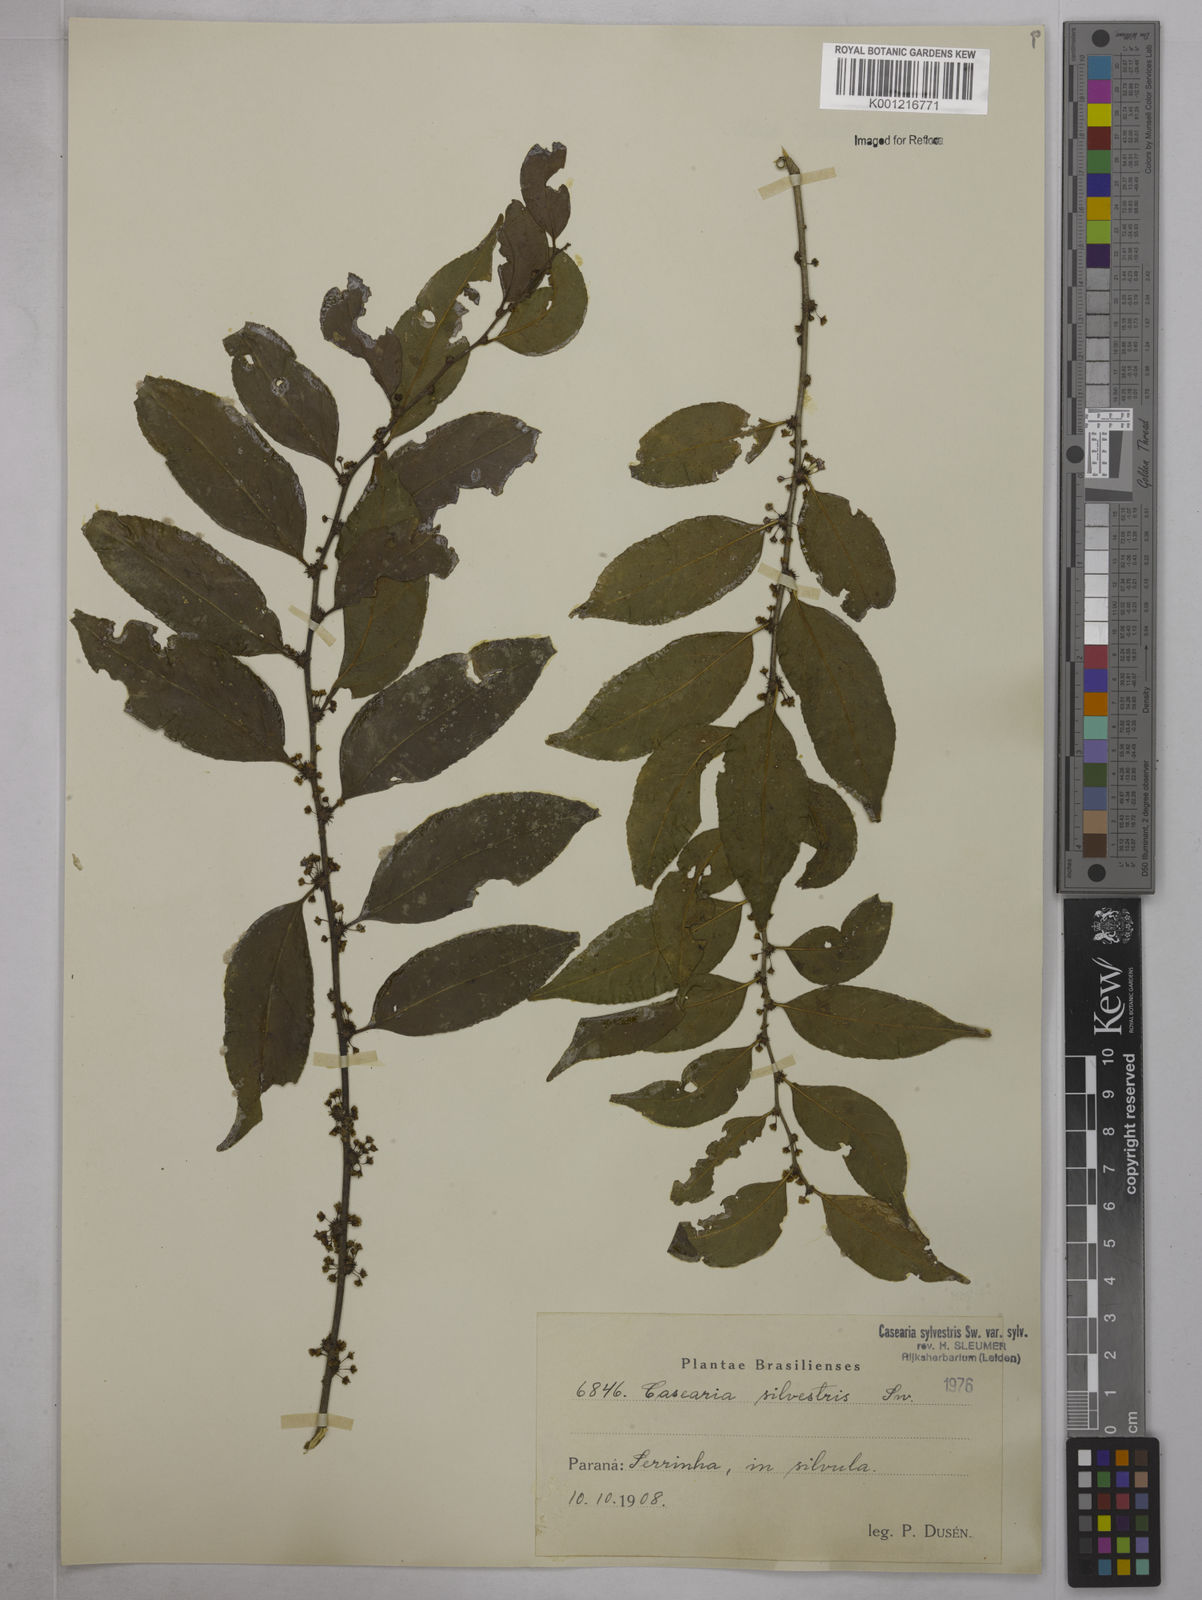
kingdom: Plantae
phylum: Tracheophyta
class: Magnoliopsida
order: Malpighiales
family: Salicaceae
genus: Casearia
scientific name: Casearia sylvestris
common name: Wild sage
